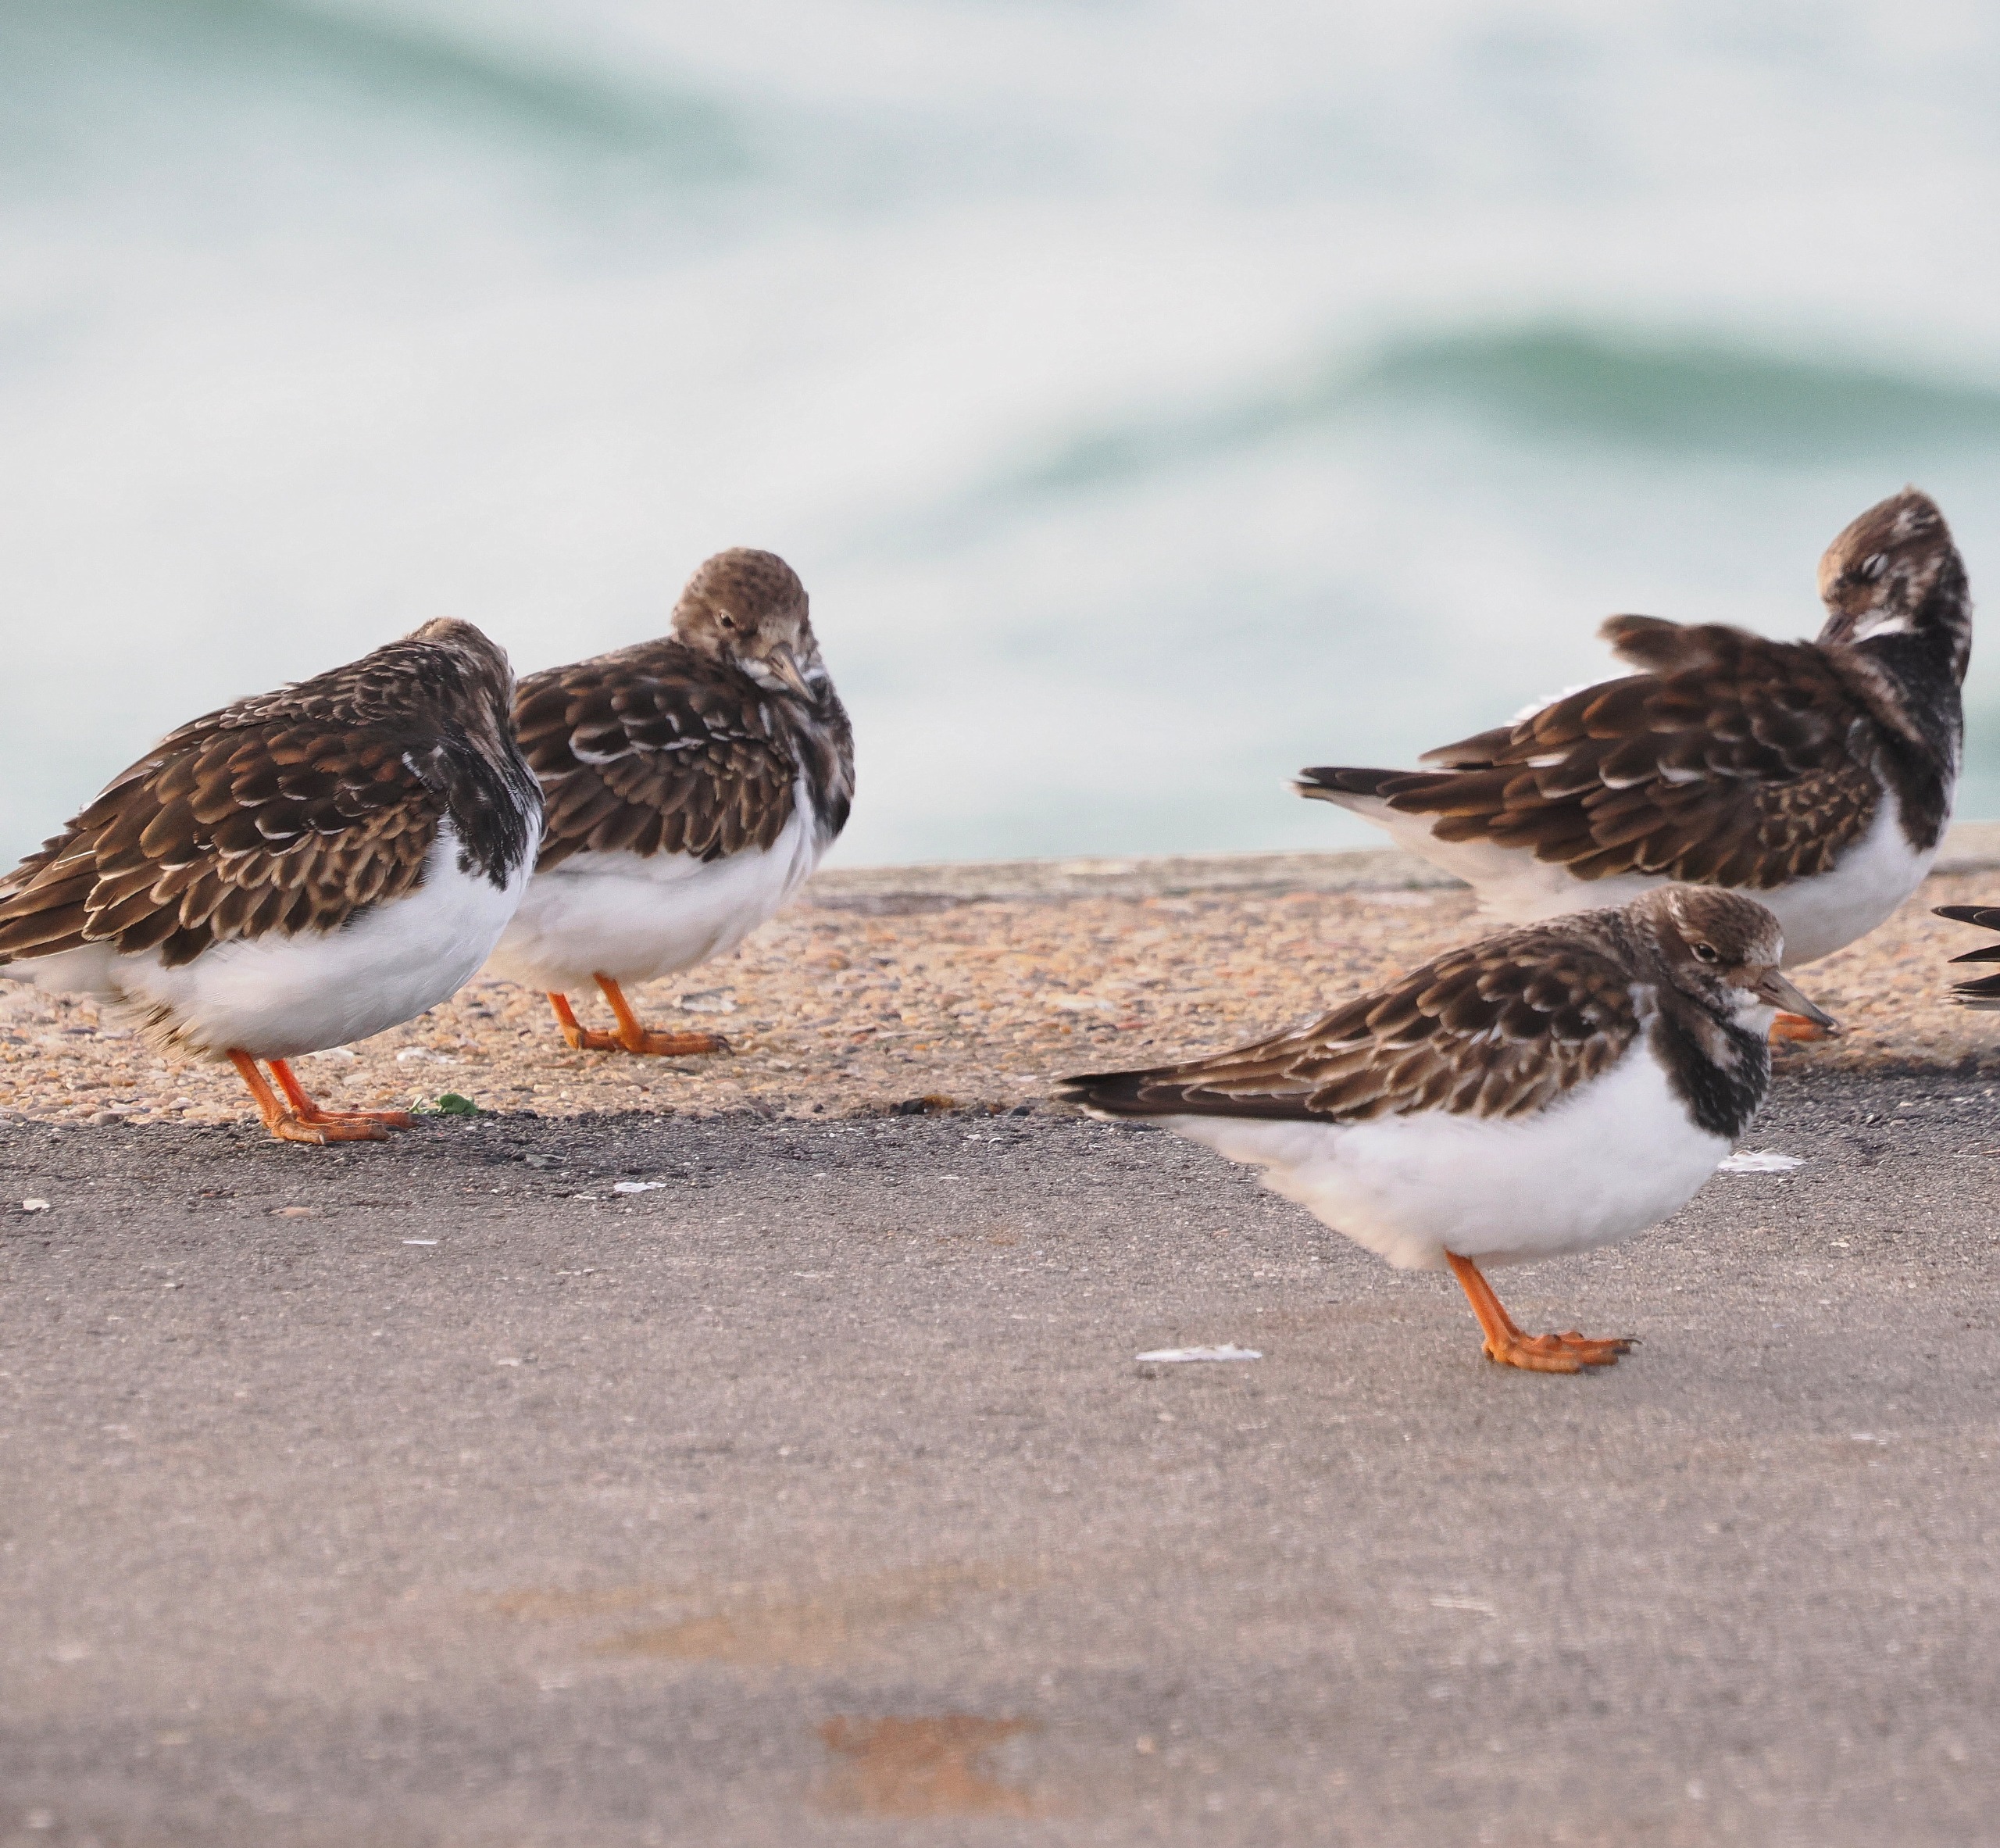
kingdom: Animalia
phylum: Chordata
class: Aves
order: Charadriiformes
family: Scolopacidae
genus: Arenaria
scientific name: Arenaria interpres
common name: Stenvender
